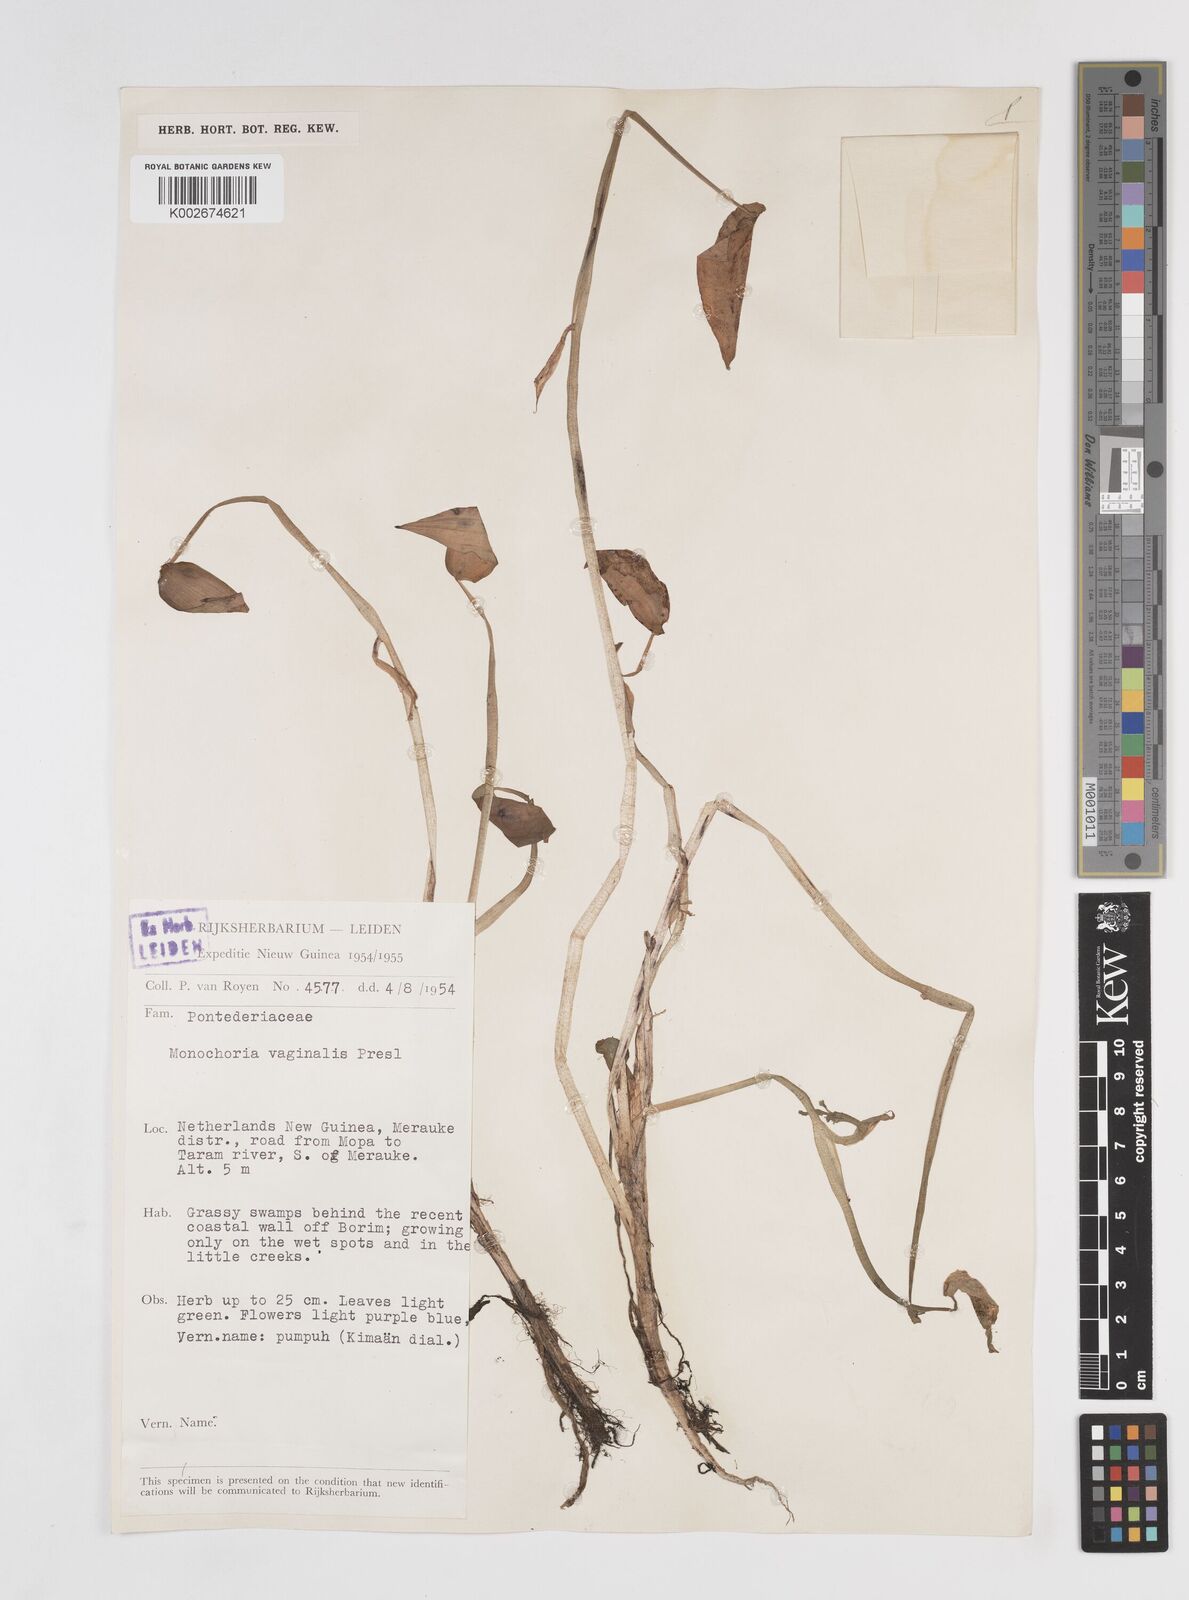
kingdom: Plantae
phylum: Tracheophyta
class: Liliopsida
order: Commelinales
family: Pontederiaceae
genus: Pontederia
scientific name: Pontederia vaginalis
